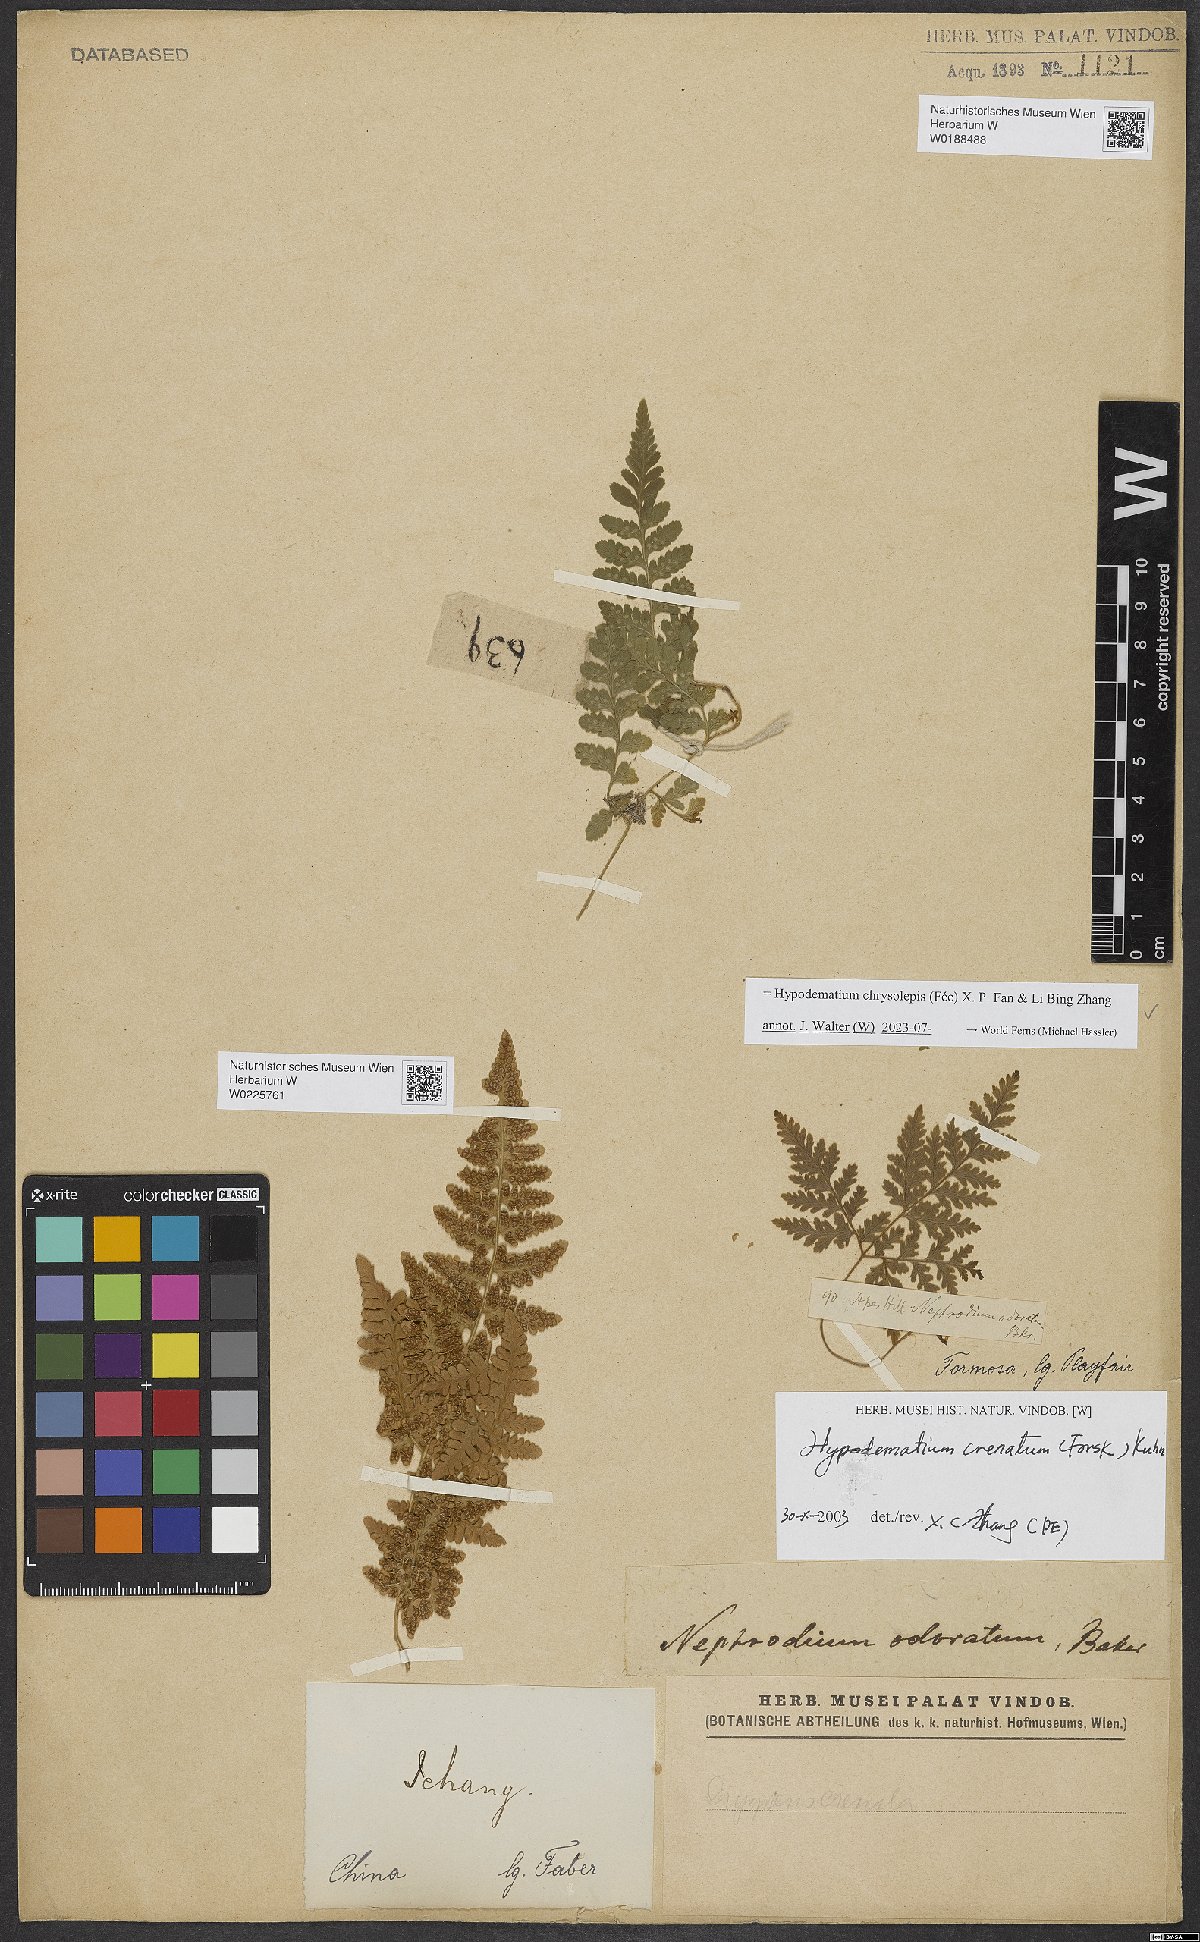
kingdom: Plantae
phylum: Tracheophyta
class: Polypodiopsida
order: Polypodiales
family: Hypodematiaceae
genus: Hypodematium
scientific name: Hypodematium chrysolepis
